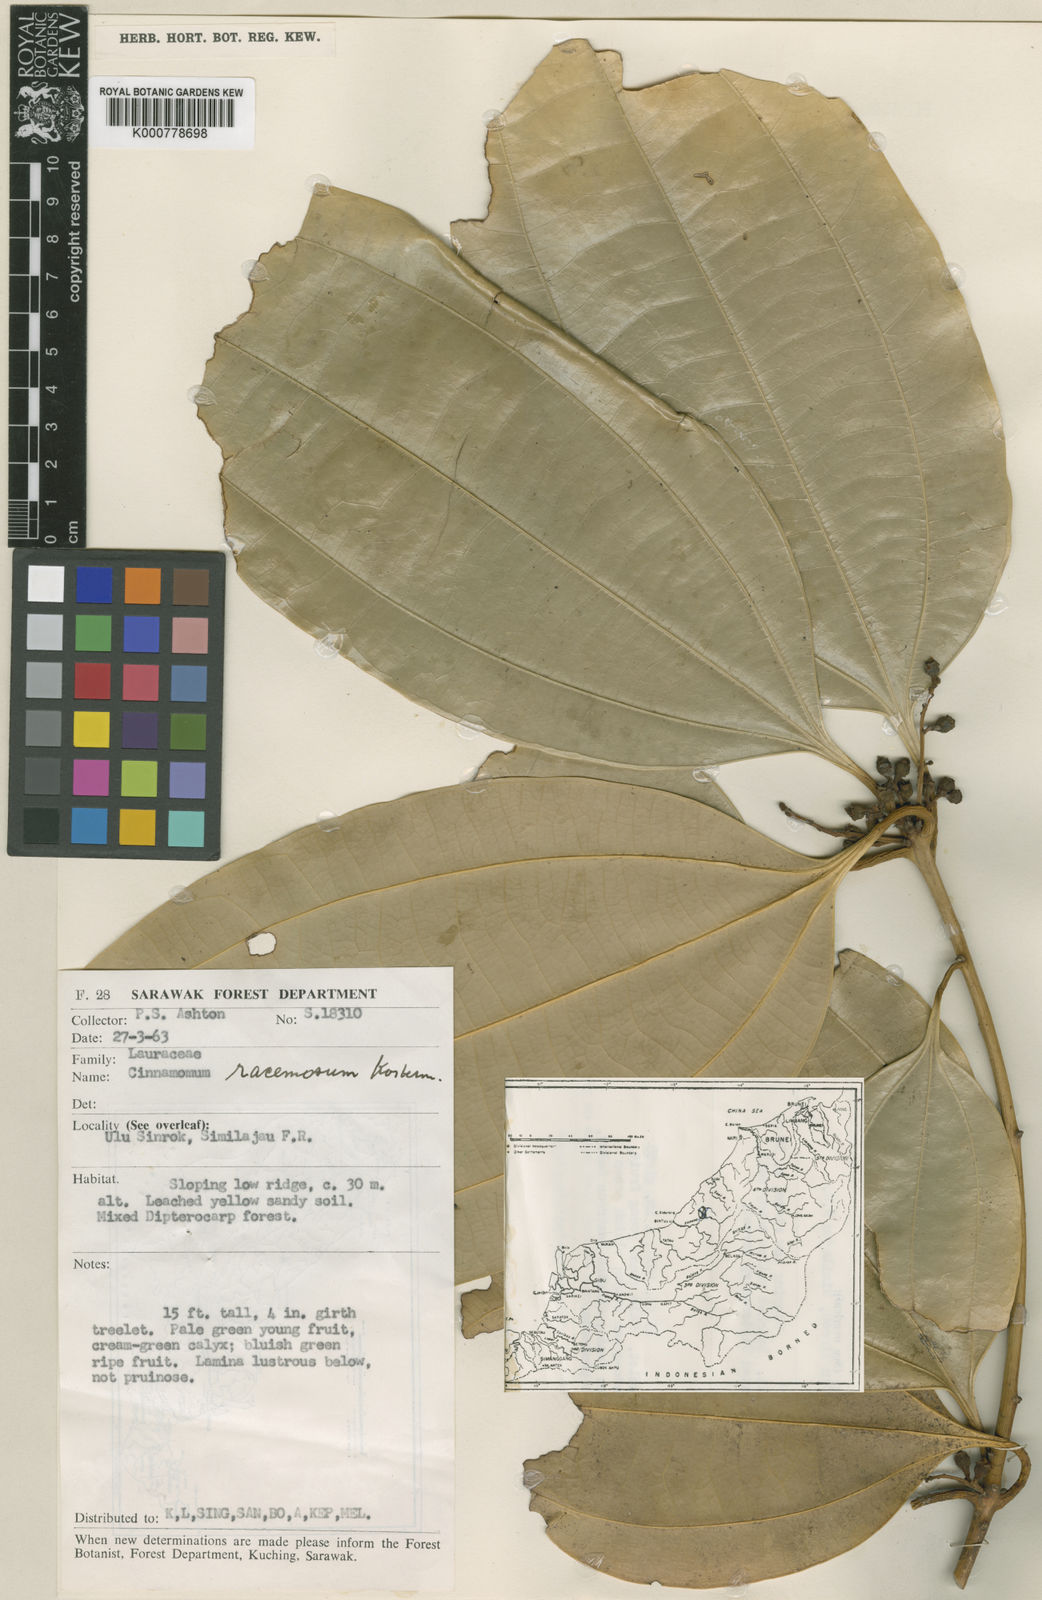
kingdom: Plantae
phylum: Tracheophyta
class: Magnoliopsida
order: Laurales
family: Lauraceae
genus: Cinnamomum
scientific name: Cinnamomum racemosum
